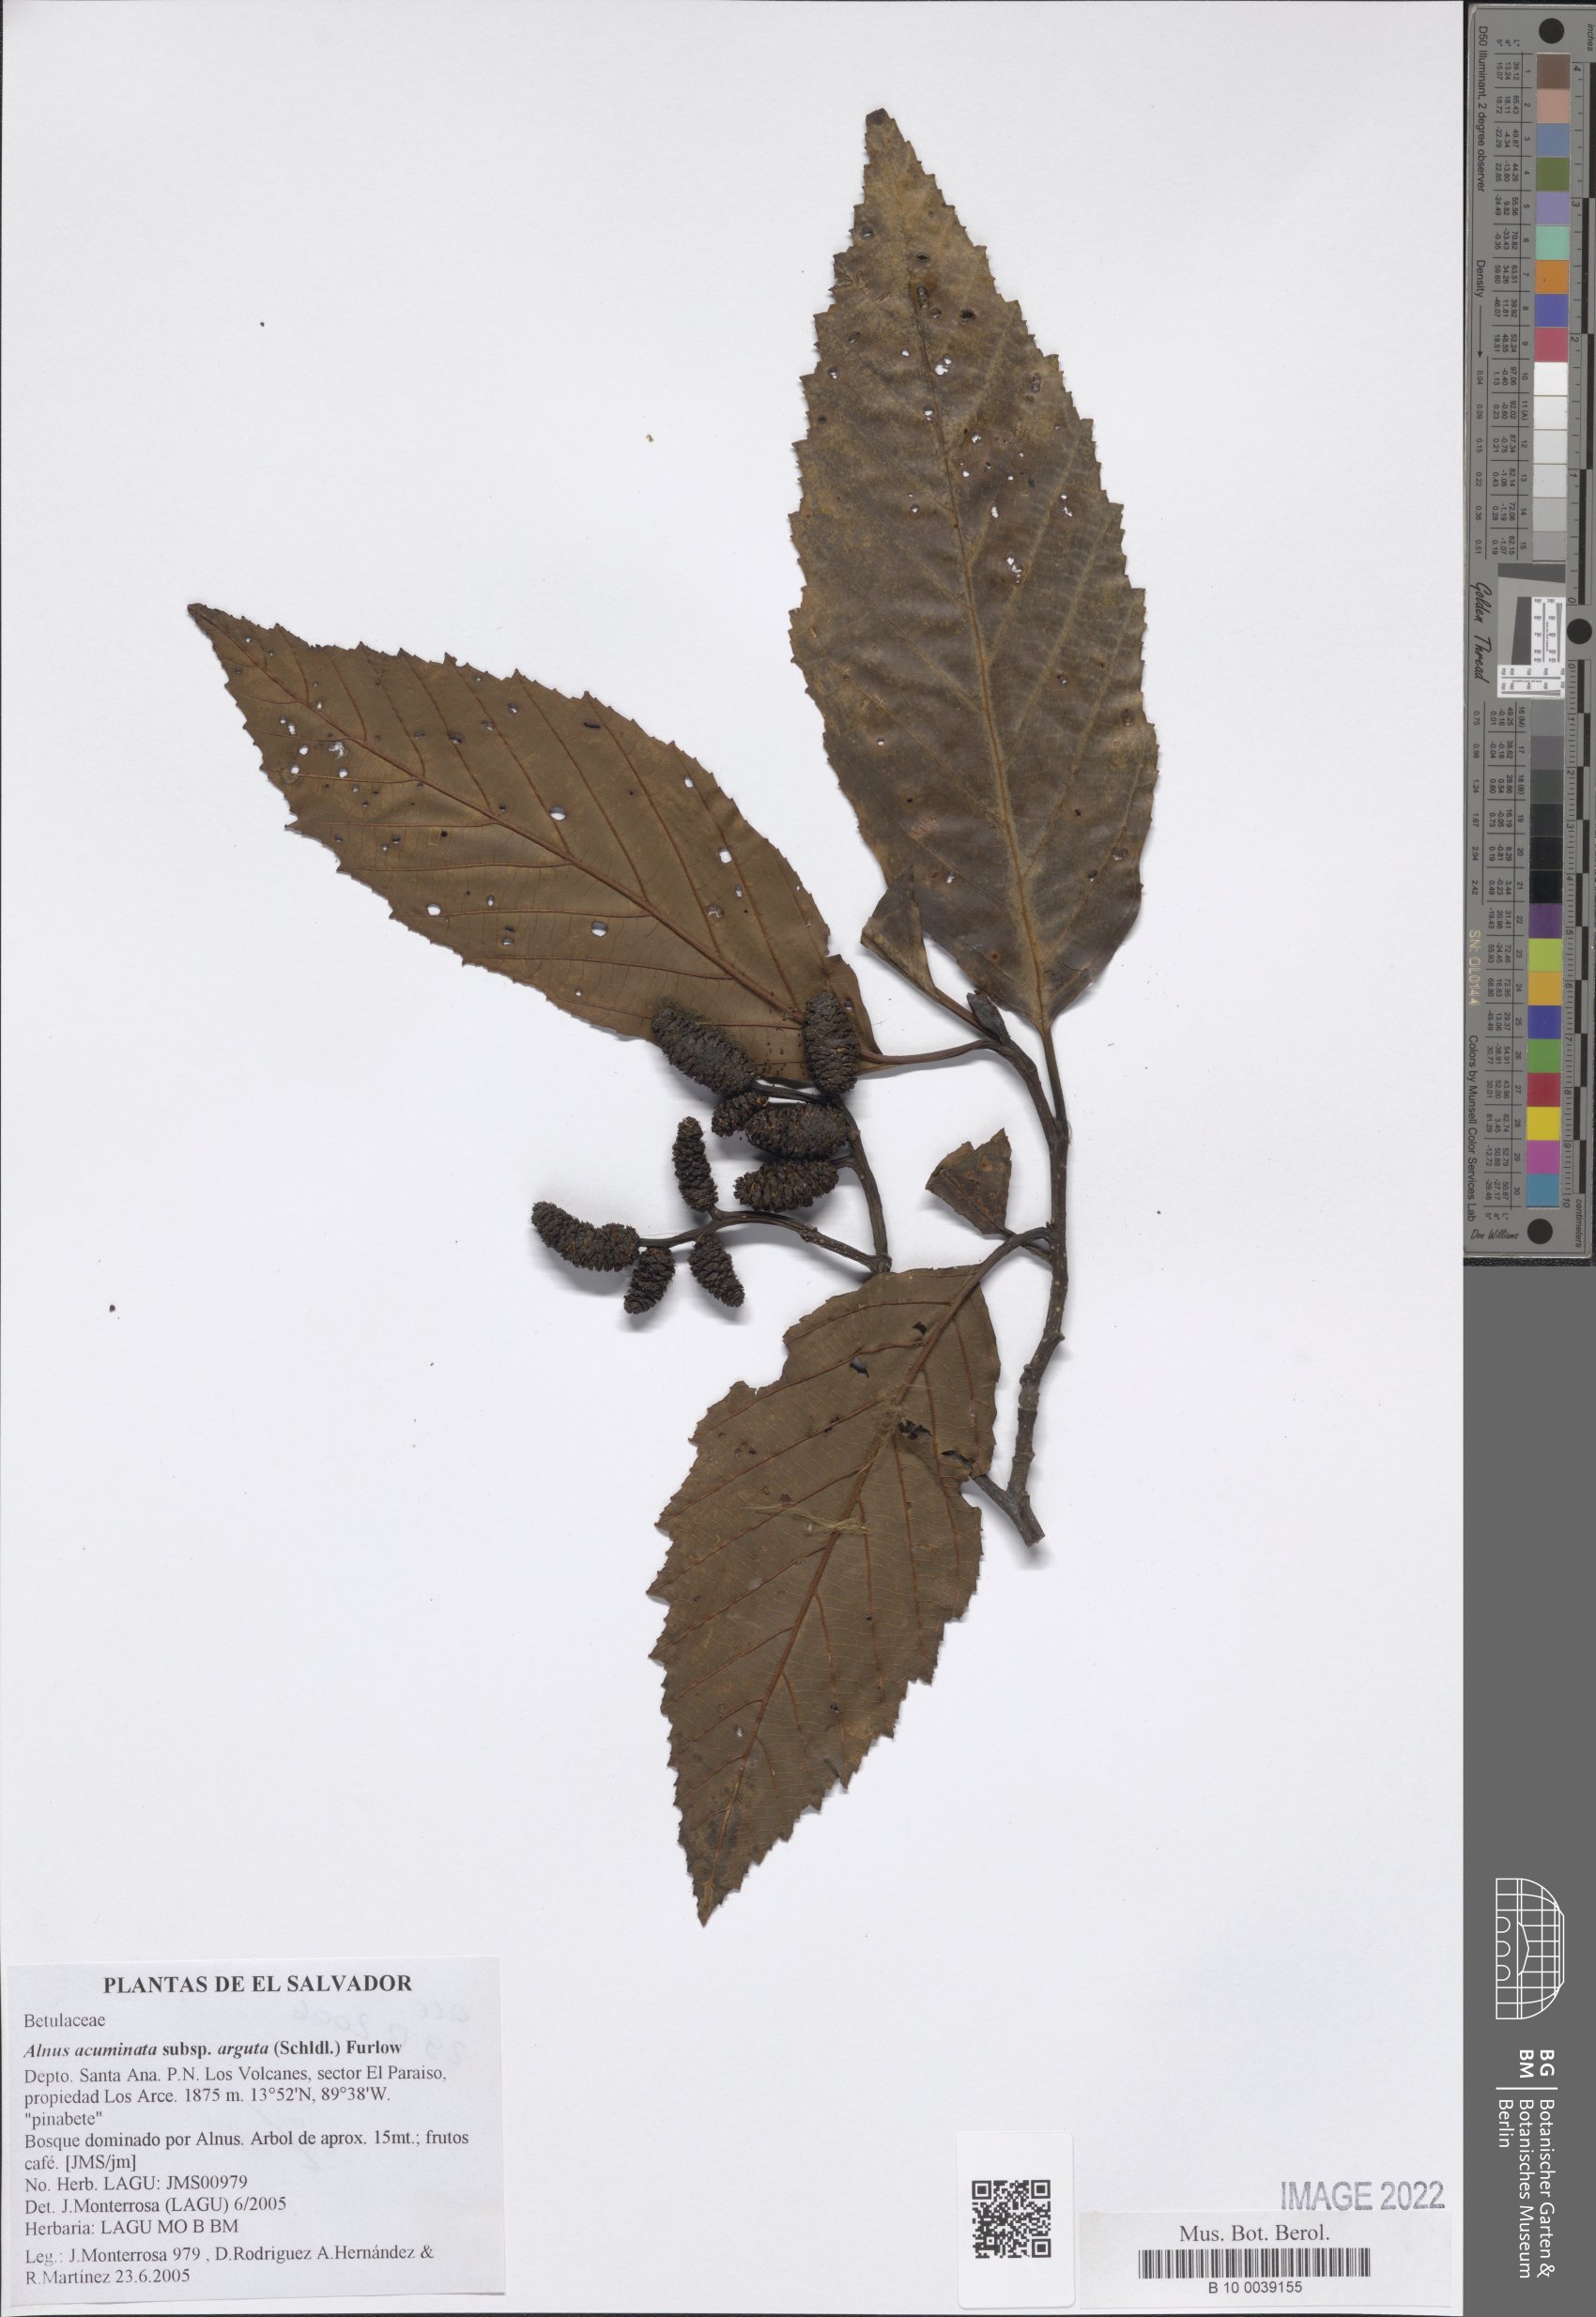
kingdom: Plantae
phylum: Tracheophyta
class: Magnoliopsida
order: Fagales
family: Betulaceae
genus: Alnus
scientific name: Alnus acuminata
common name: Alder
